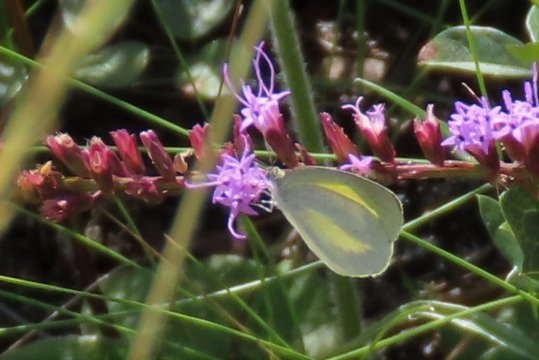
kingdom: Animalia
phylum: Arthropoda
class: Insecta
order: Lepidoptera
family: Pieridae
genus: Eurema
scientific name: Eurema daira
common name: Barred Yellow
